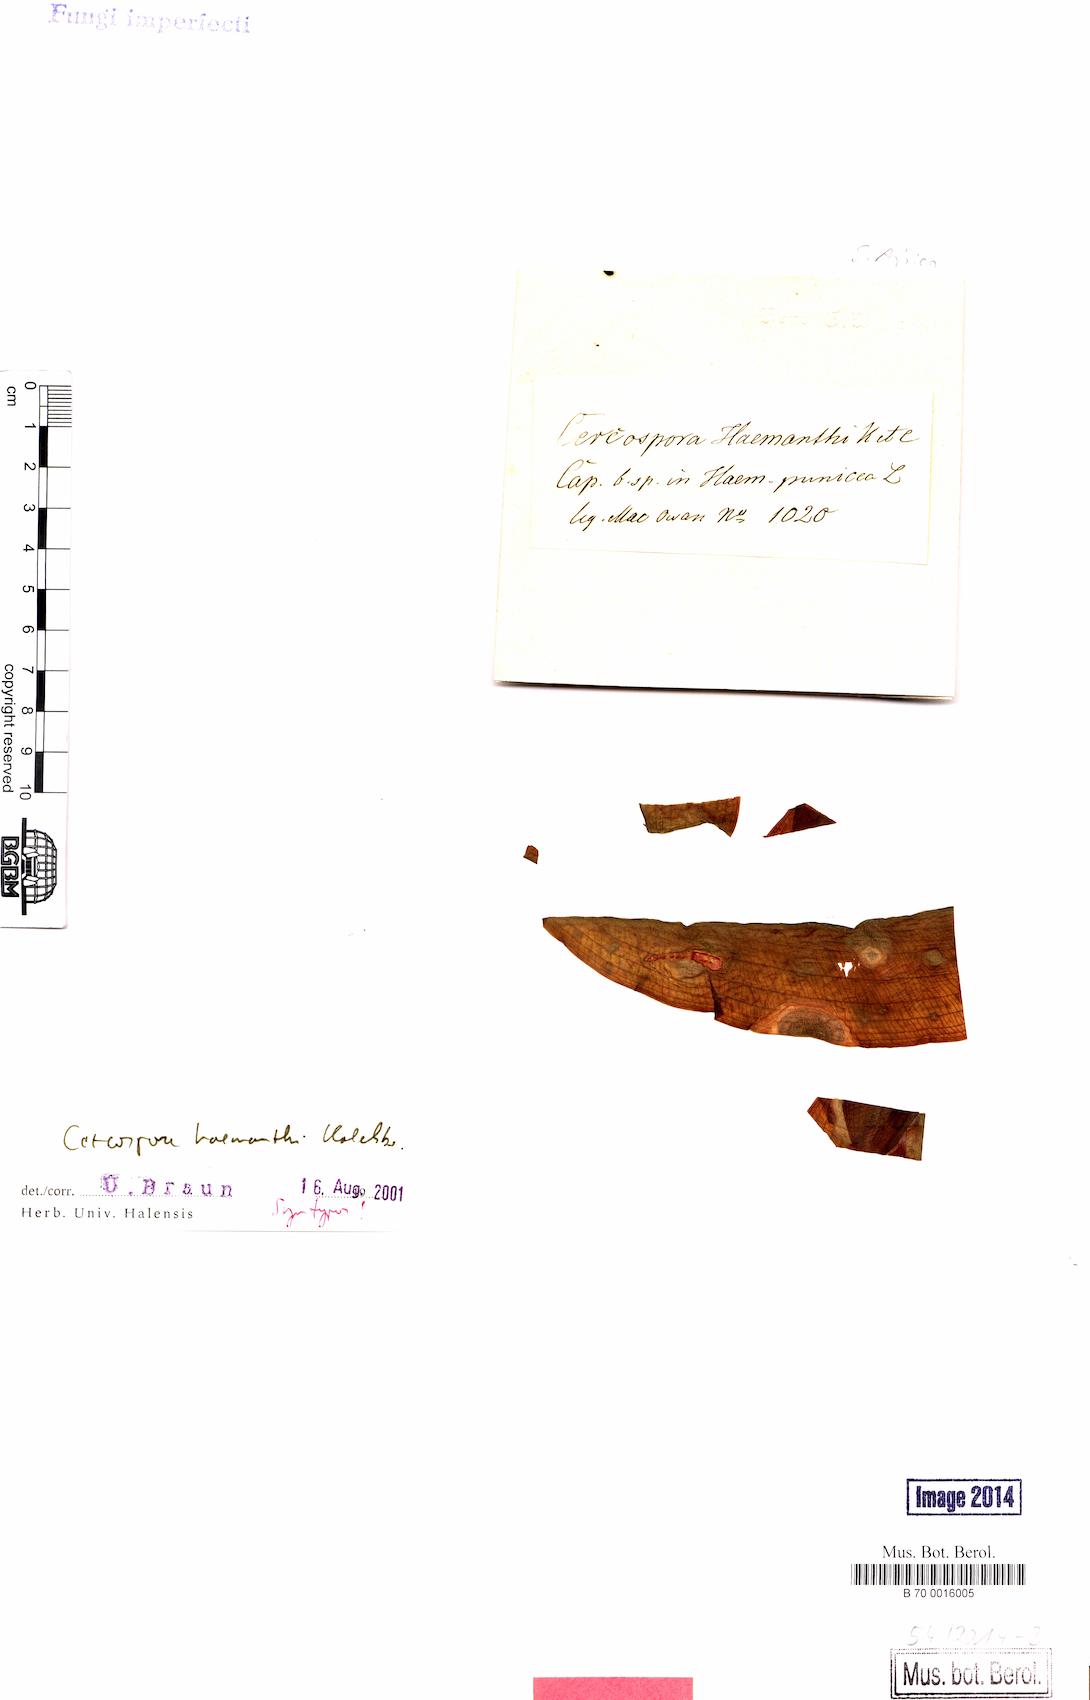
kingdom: Fungi
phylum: Ascomycota
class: Dothideomycetes
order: Mycosphaerellales
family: Mycosphaerellaceae
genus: Cercospora
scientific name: Cercospora
